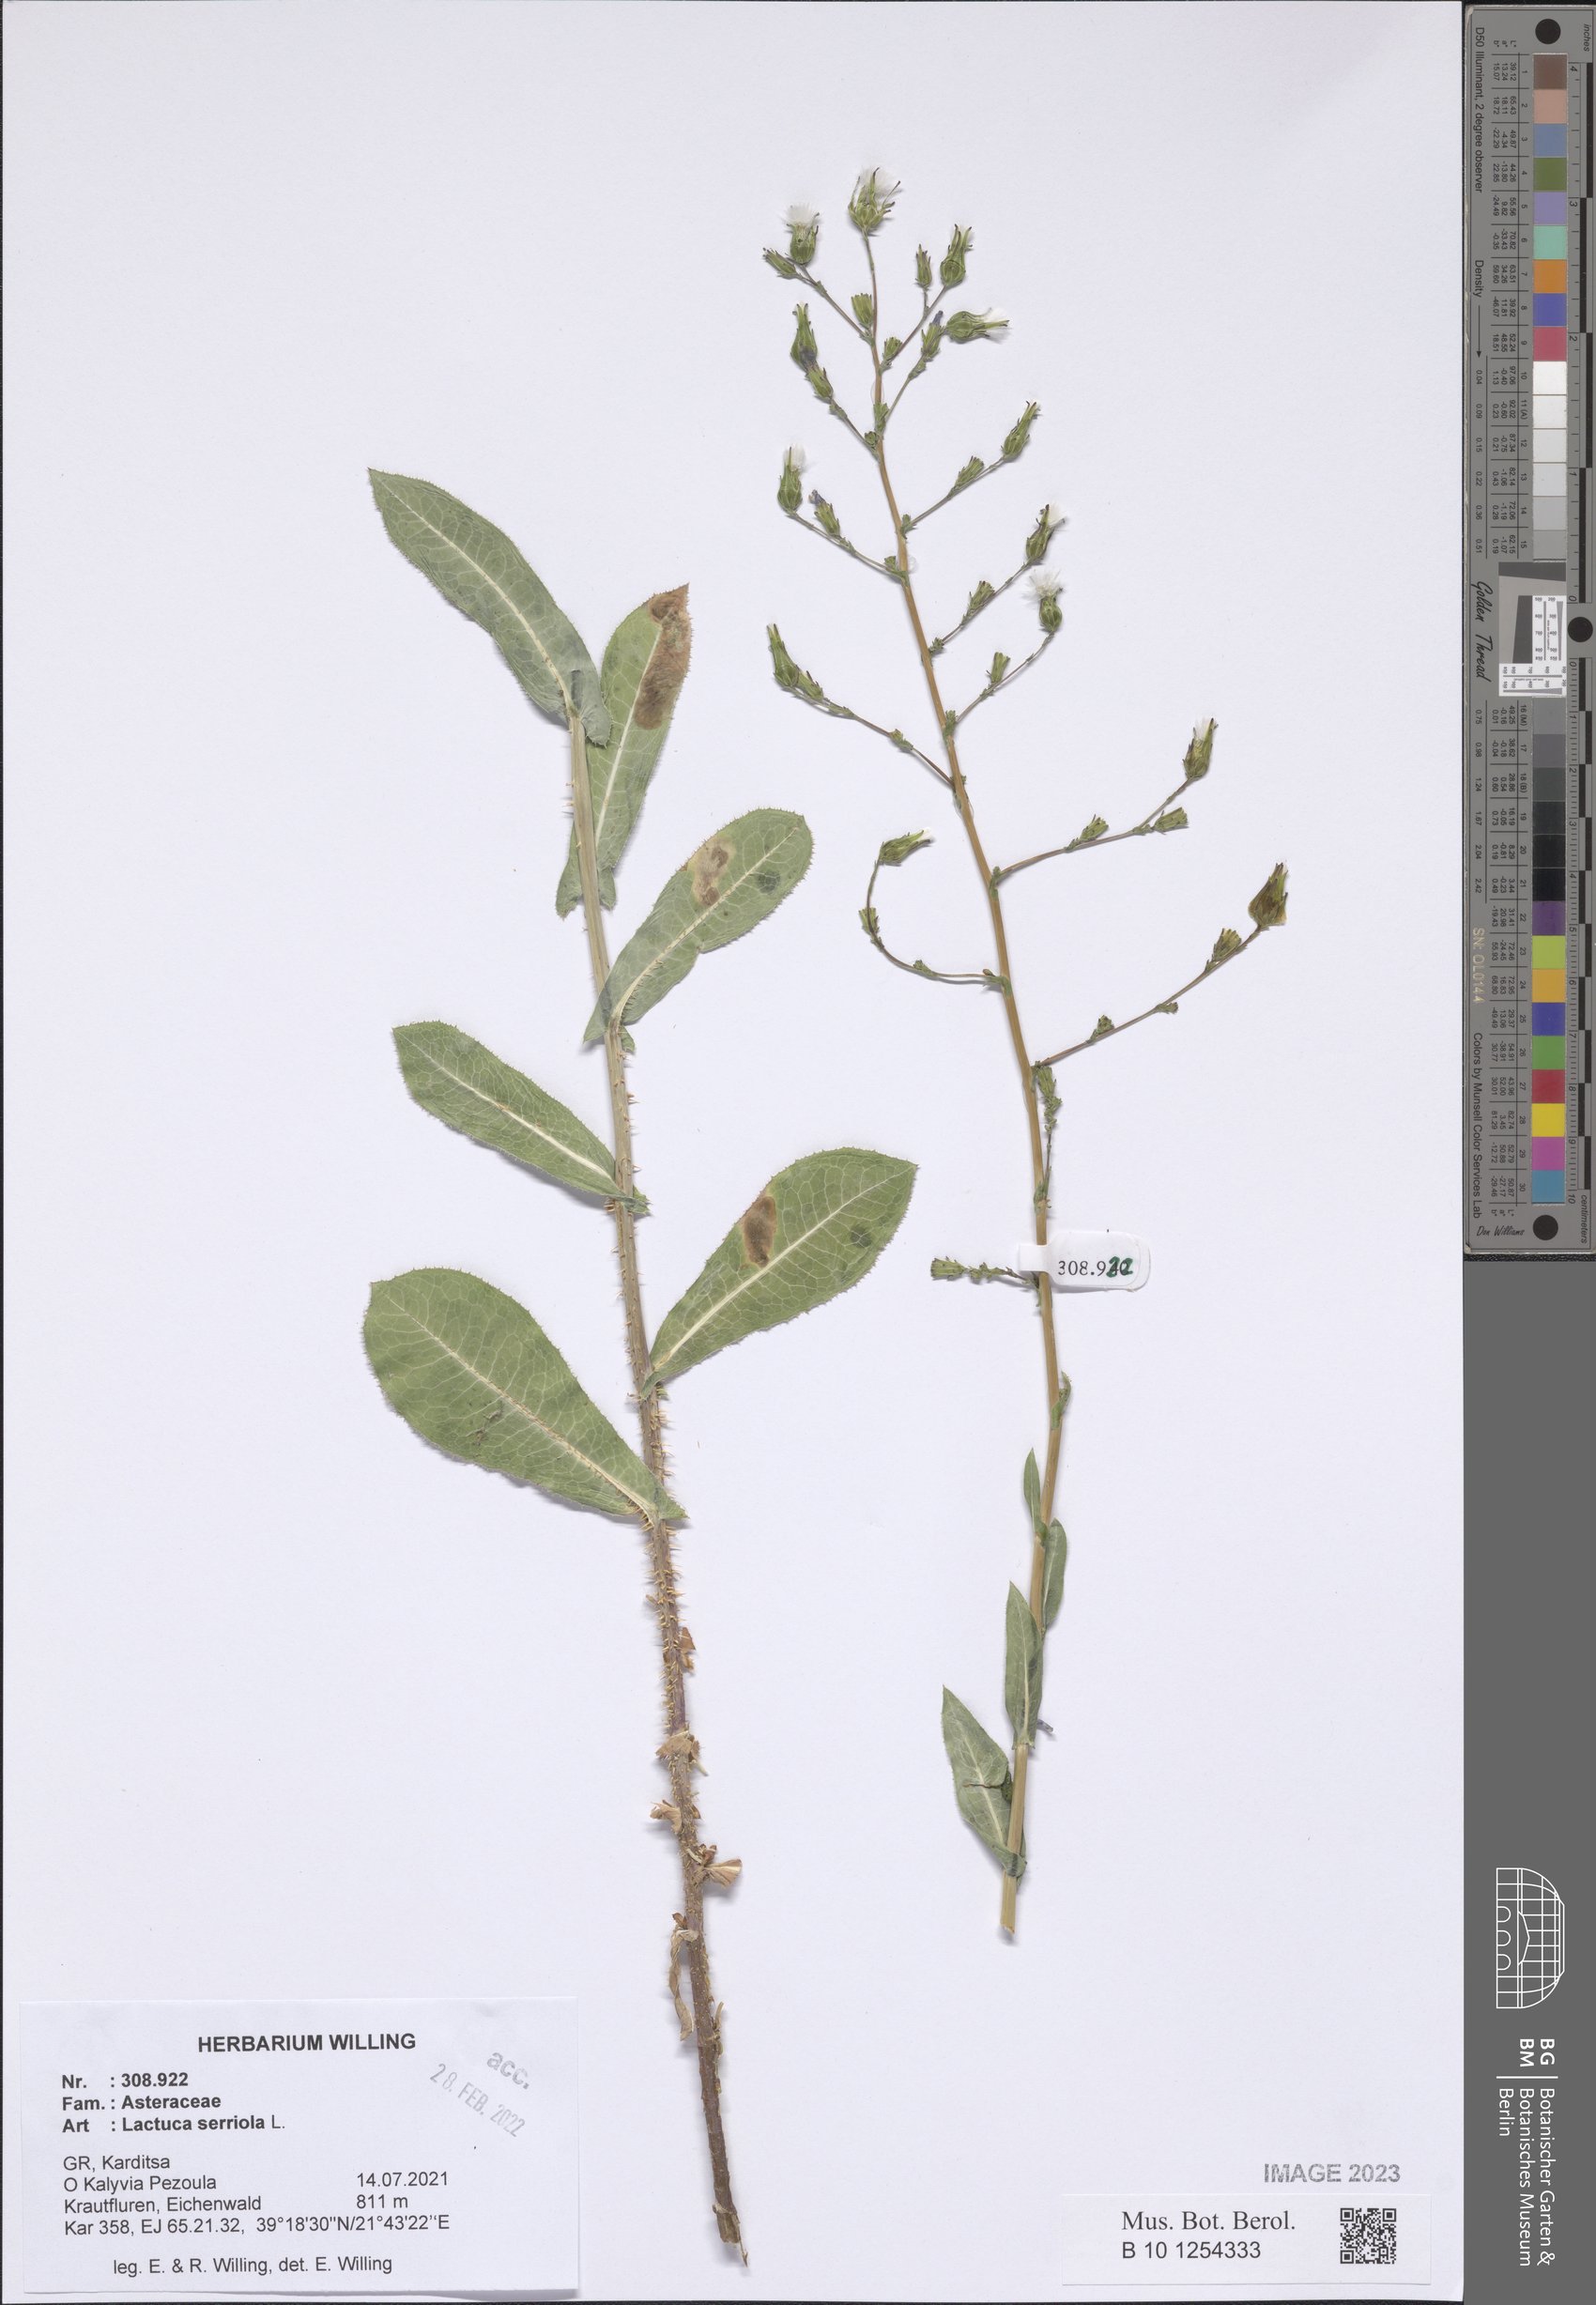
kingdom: Plantae
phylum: Tracheophyta
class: Magnoliopsida
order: Asterales
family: Asteraceae
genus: Lactuca
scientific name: Lactuca serriola
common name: Prickly lettuce
